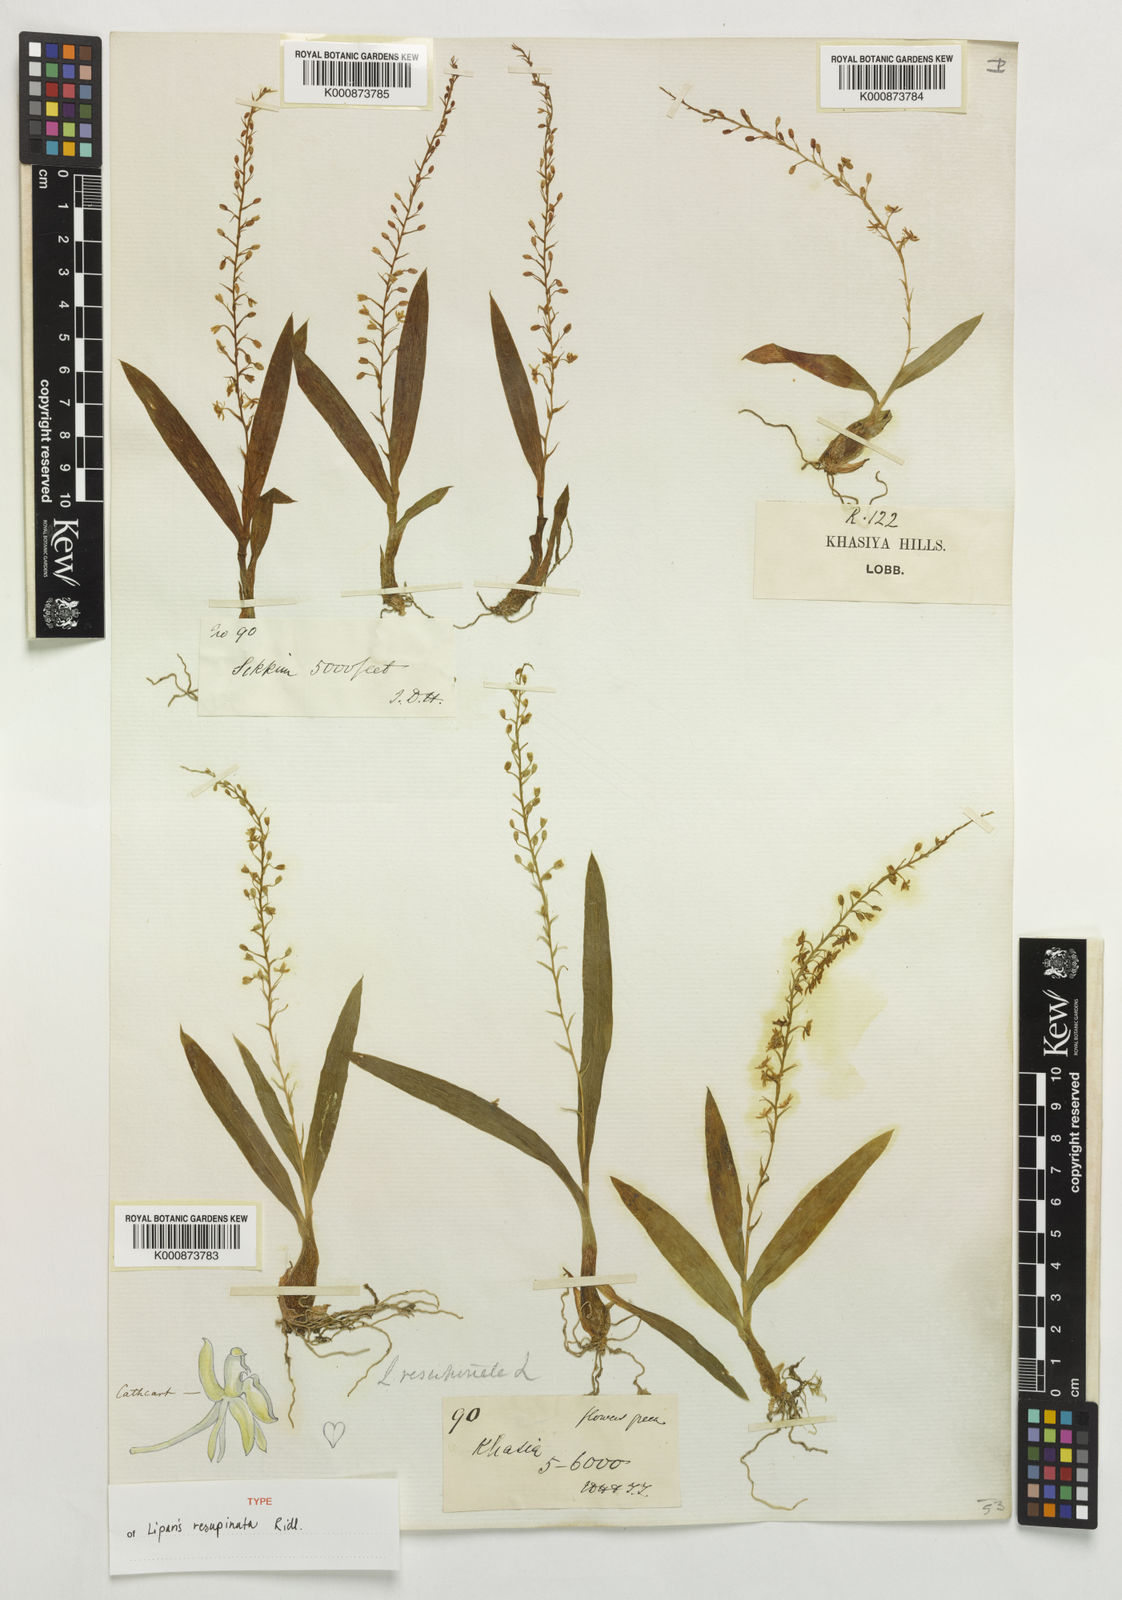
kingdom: Plantae
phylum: Tracheophyta
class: Liliopsida
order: Asparagales
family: Orchidaceae
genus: Liparis
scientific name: Liparis resupinata
